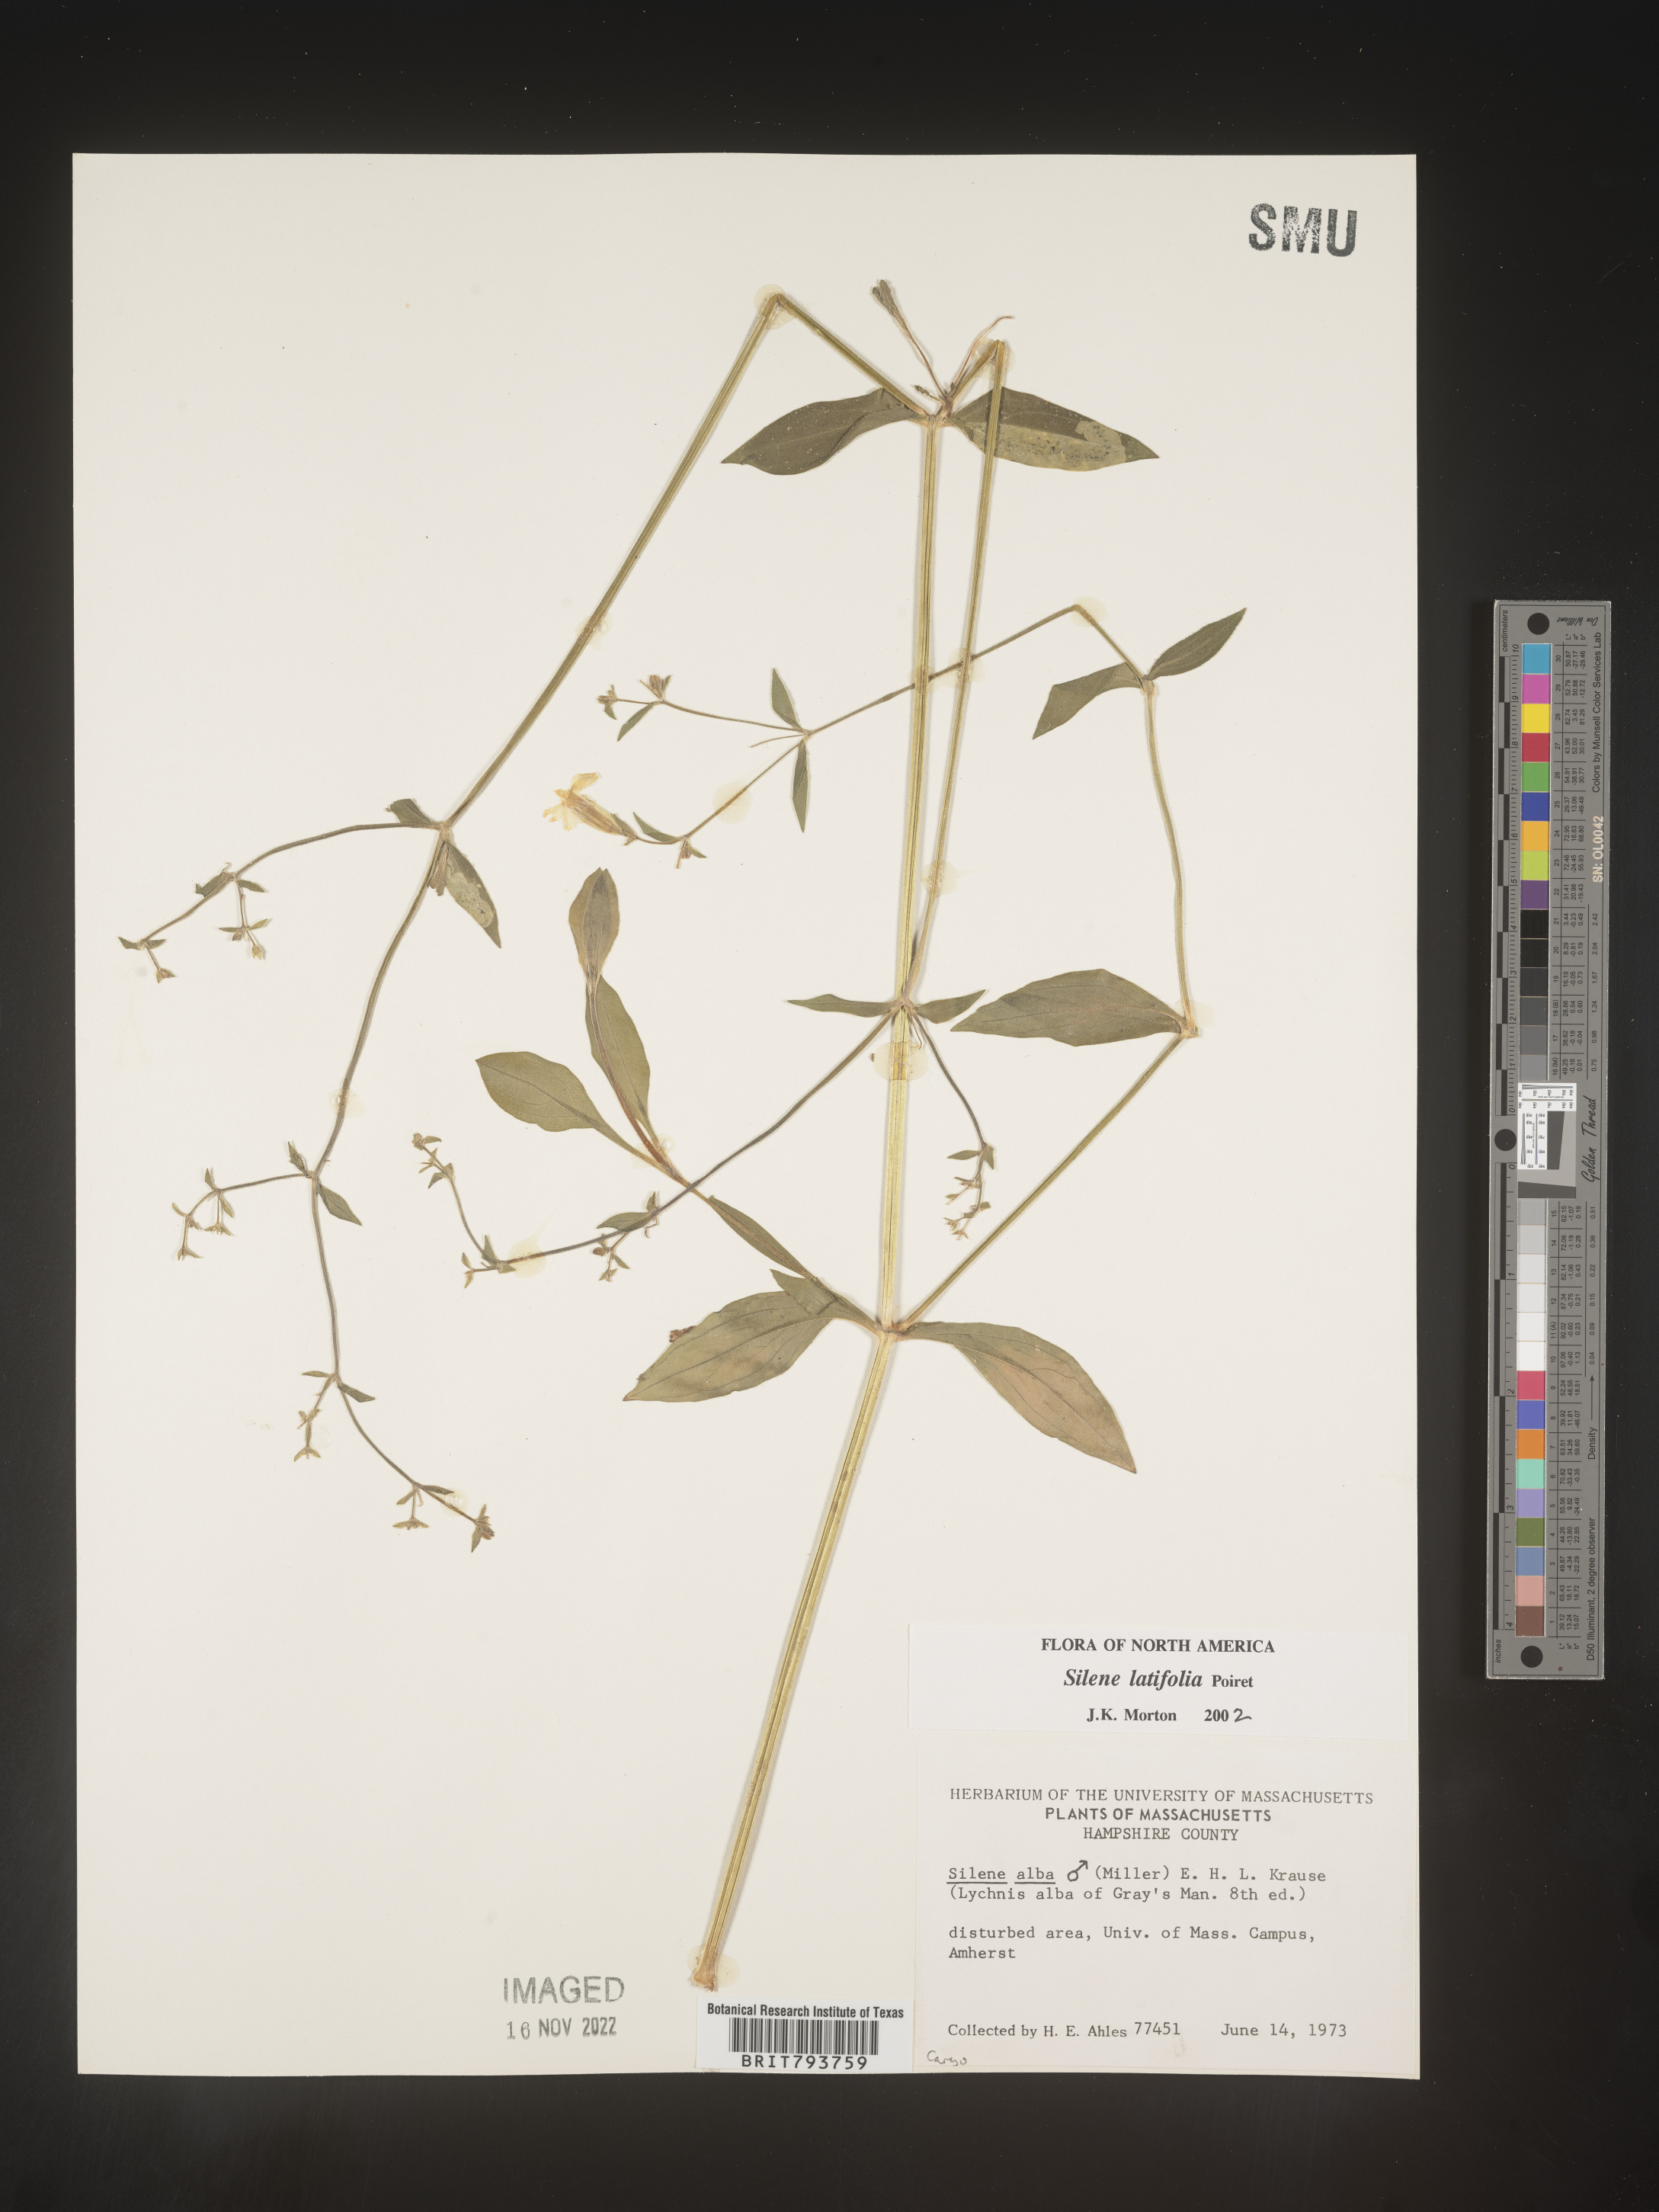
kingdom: Plantae
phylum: Tracheophyta
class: Magnoliopsida
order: Caryophyllales
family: Caryophyllaceae
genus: Silene
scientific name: Silene latifolia
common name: White campion
